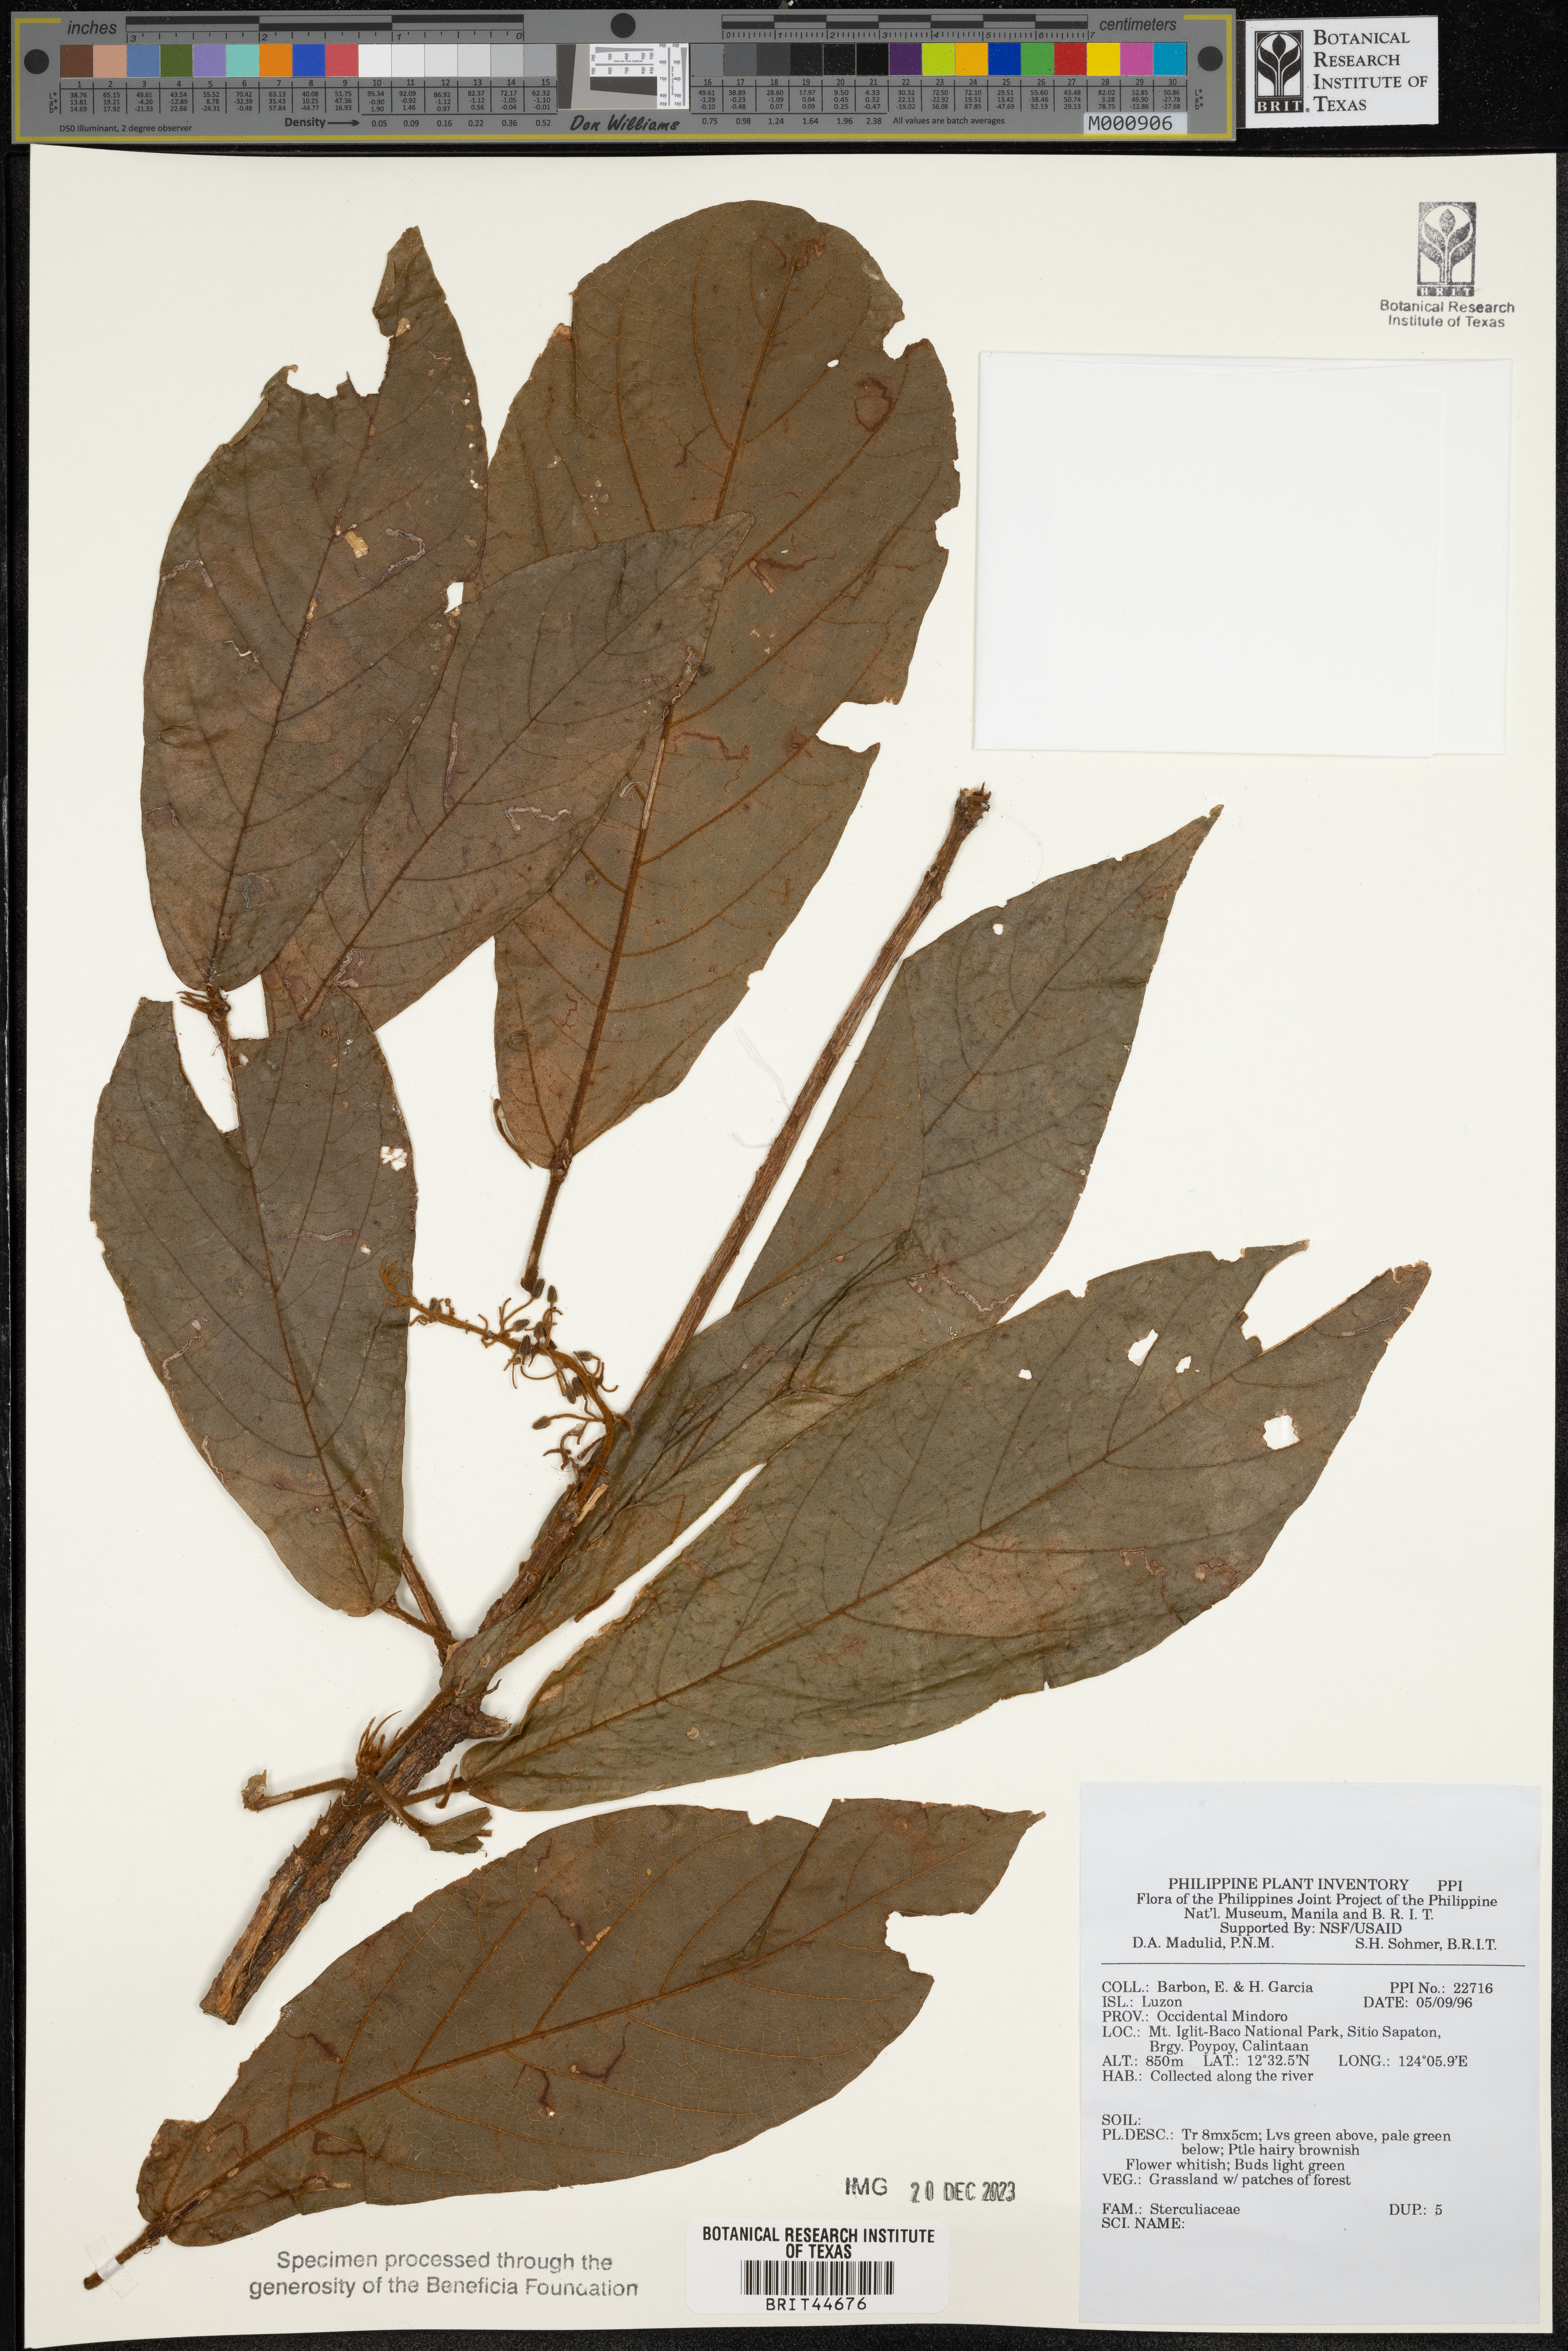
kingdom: Plantae
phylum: Tracheophyta
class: Magnoliopsida
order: Malvales
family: Sterculiaceae
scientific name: Sterculiaceae
